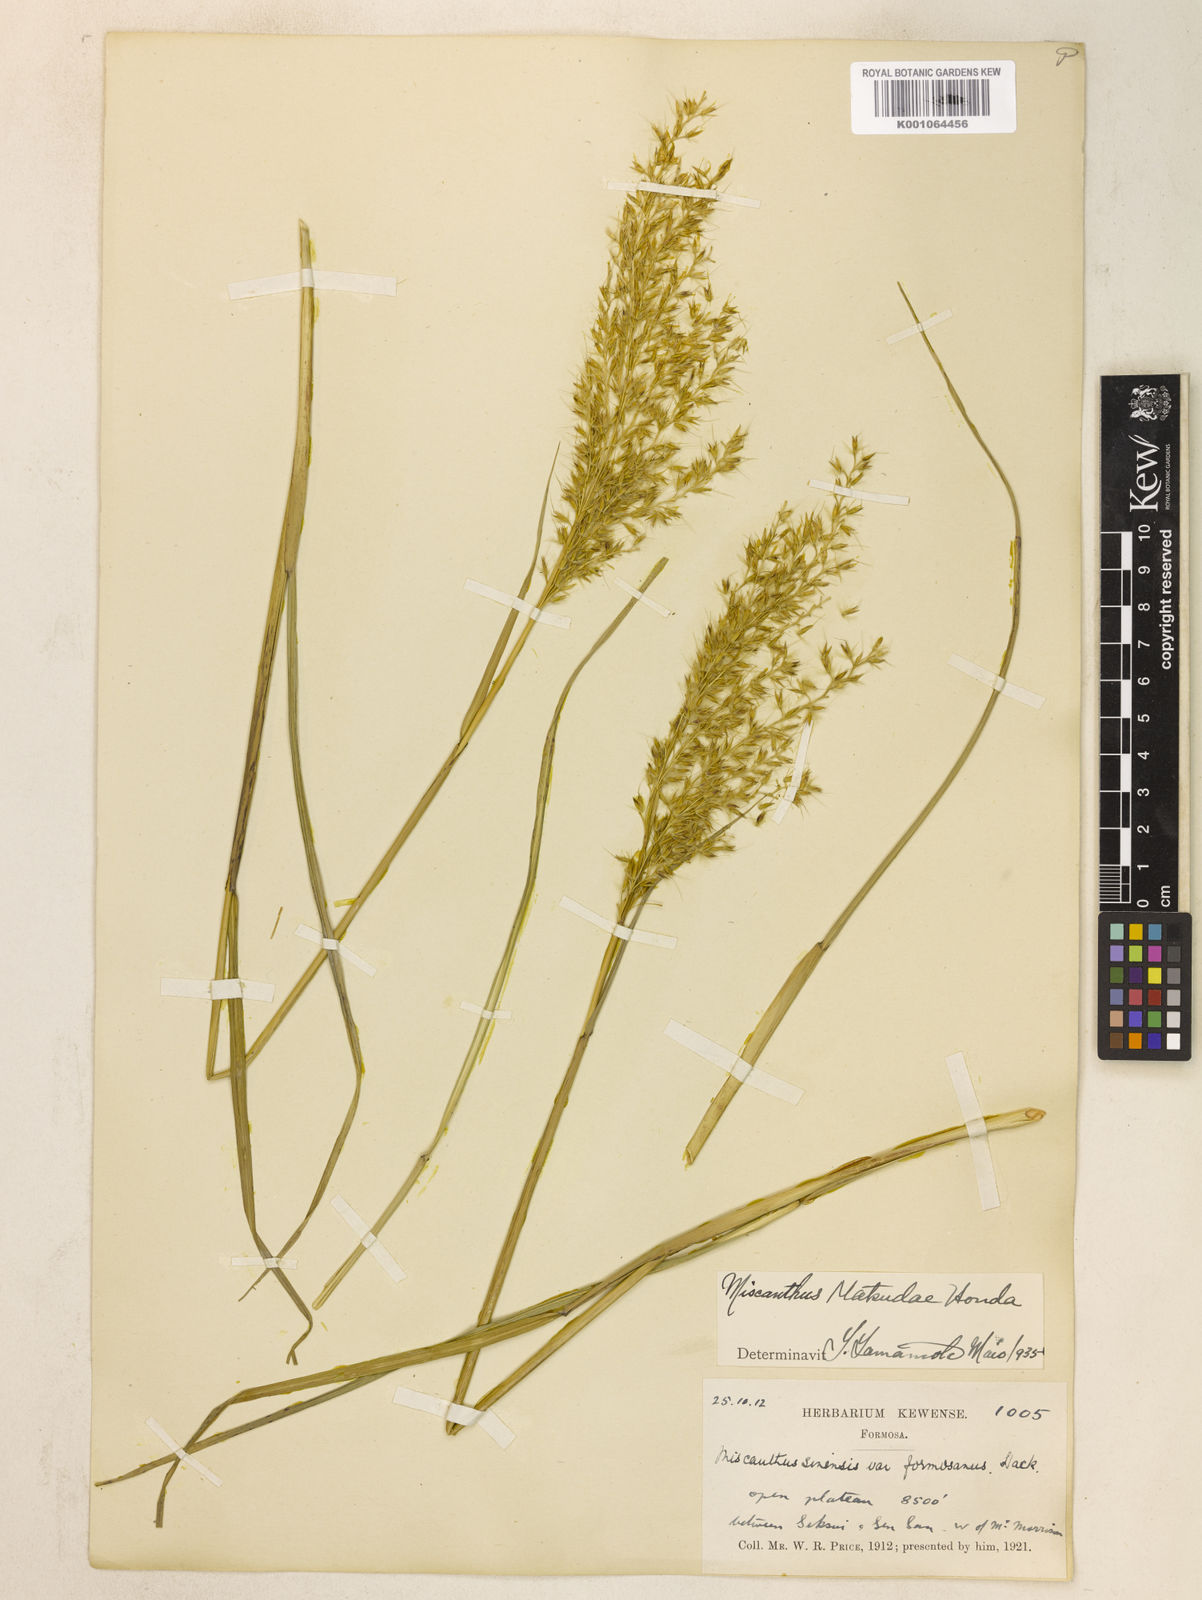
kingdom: Plantae
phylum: Tracheophyta
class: Liliopsida
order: Poales
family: Poaceae
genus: Miscanthus
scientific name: Miscanthus sinensis
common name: Chinese silvergrass
